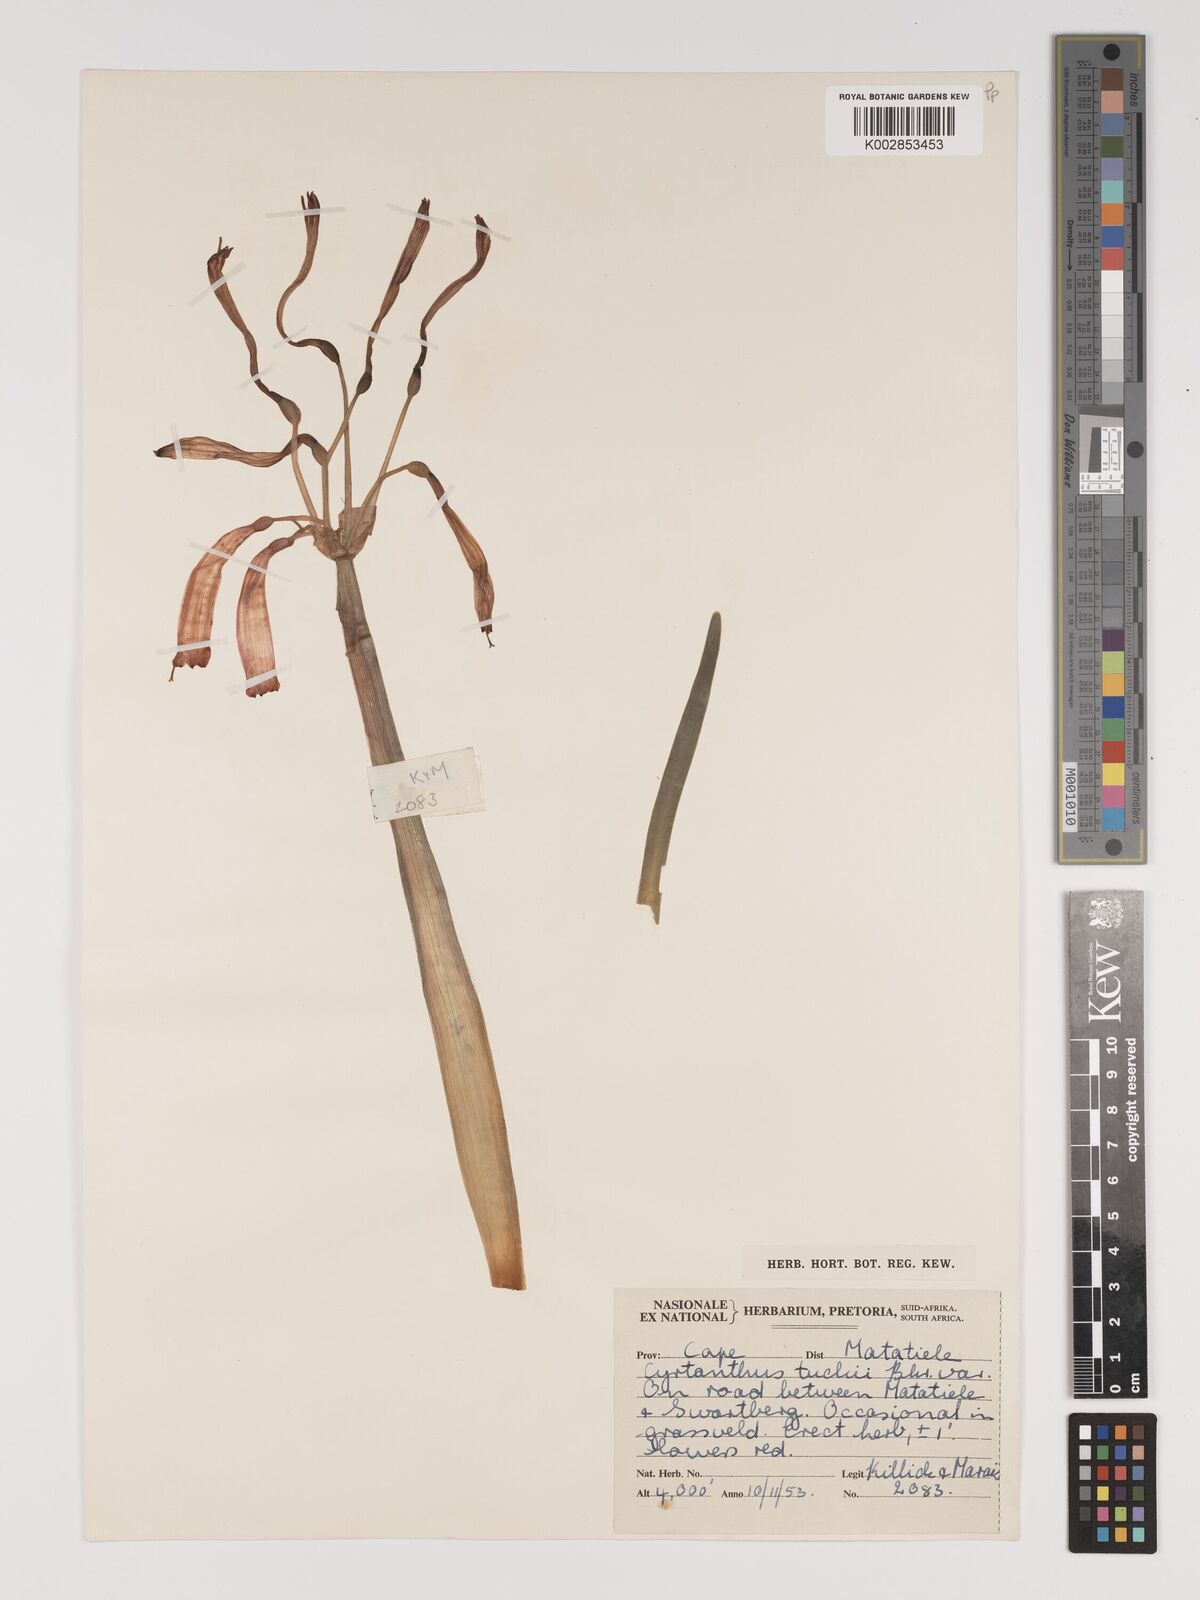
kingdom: Plantae
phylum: Tracheophyta
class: Liliopsida
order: Asparagales
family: Amaryllidaceae
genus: Cyrtanthus
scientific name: Cyrtanthus tuckii
